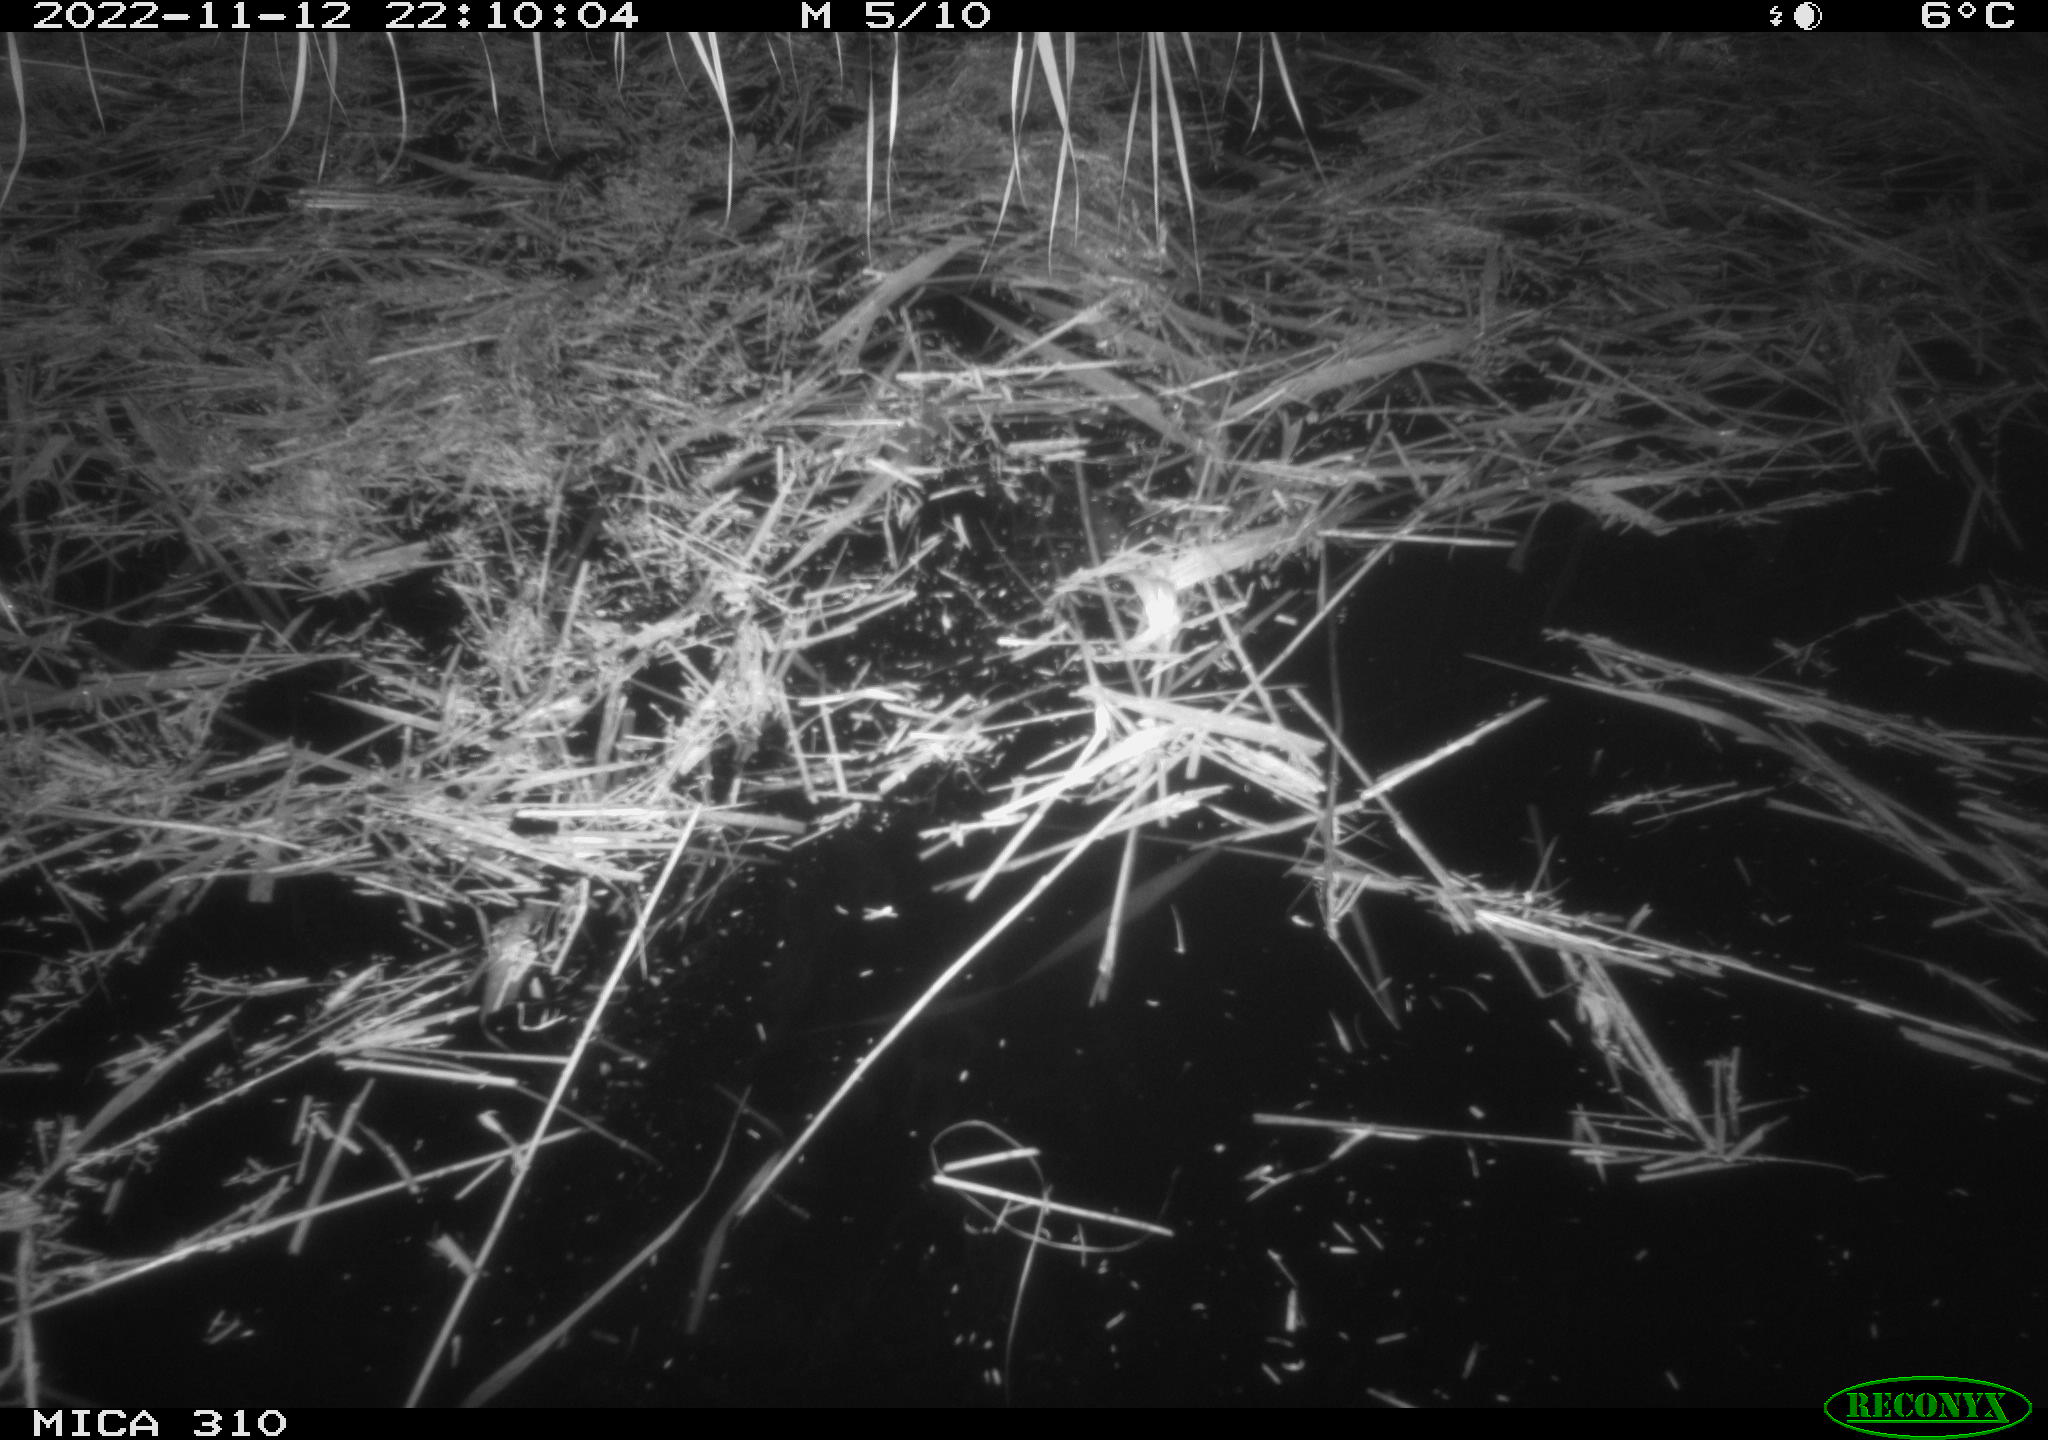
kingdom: Animalia
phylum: Chordata
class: Mammalia
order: Rodentia
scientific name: Rodentia
